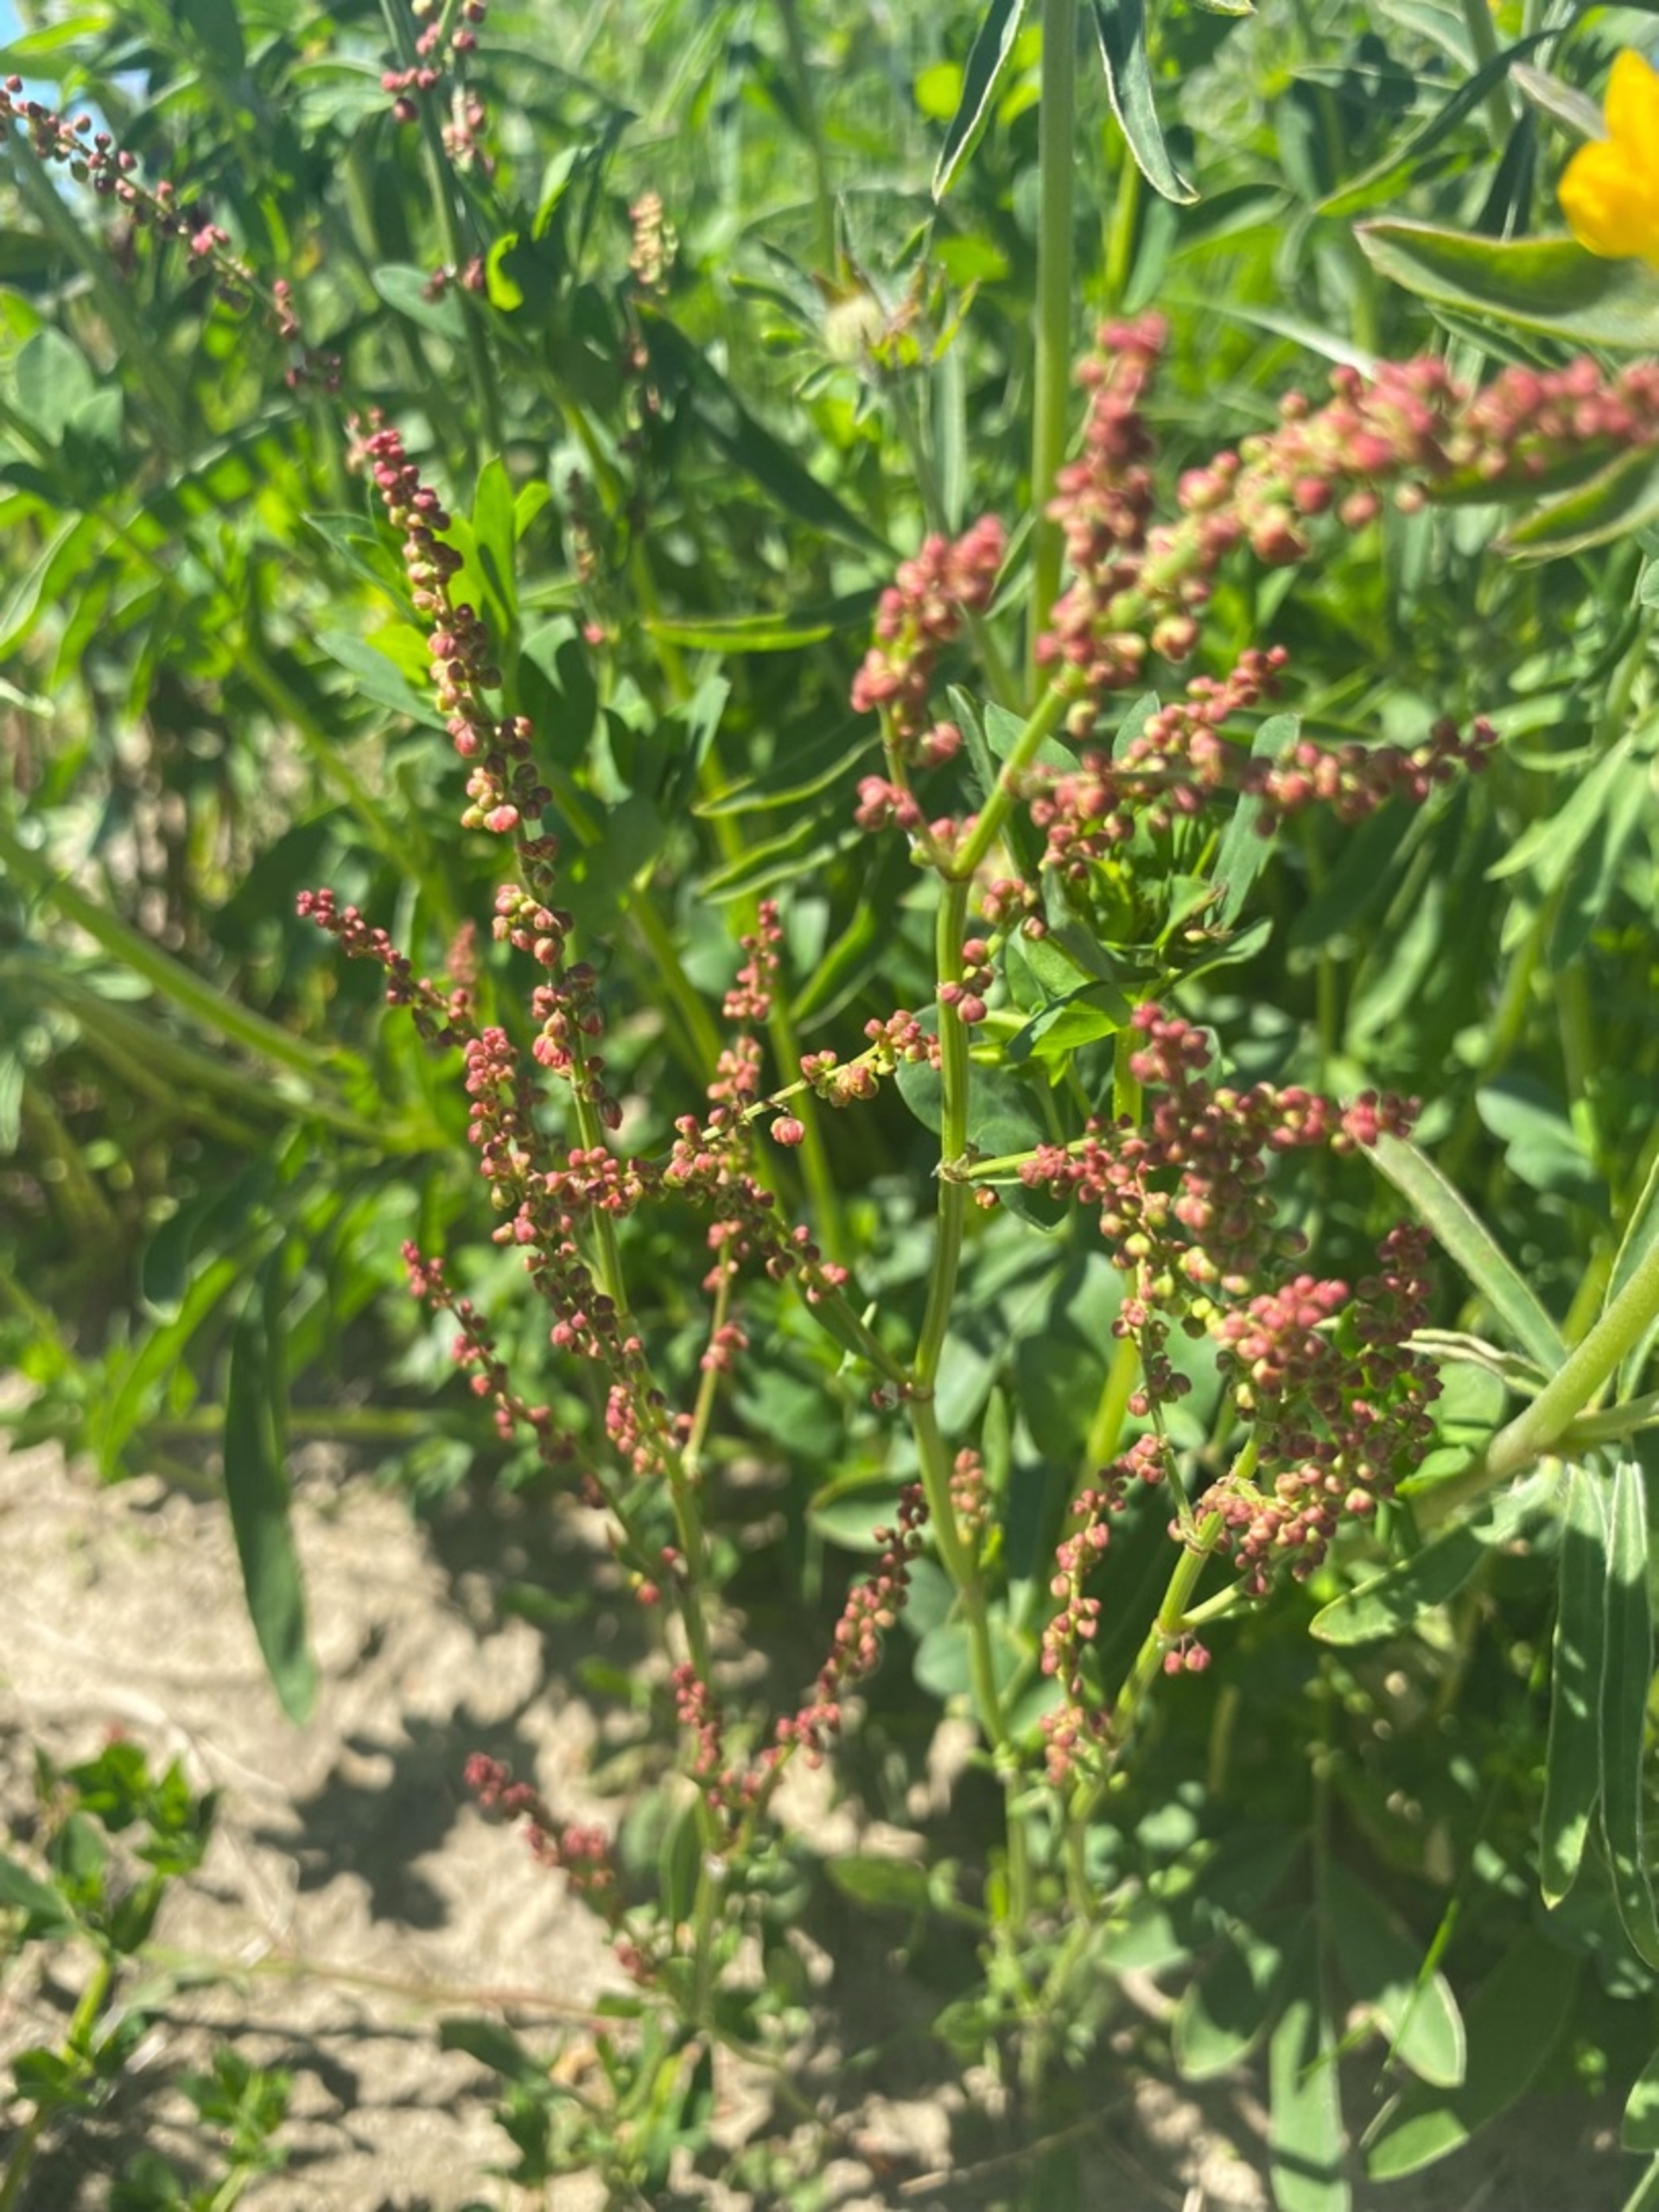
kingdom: Plantae
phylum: Tracheophyta
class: Magnoliopsida
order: Caryophyllales
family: Polygonaceae
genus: Rumex
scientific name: Rumex acetosella
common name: Rødknæ
